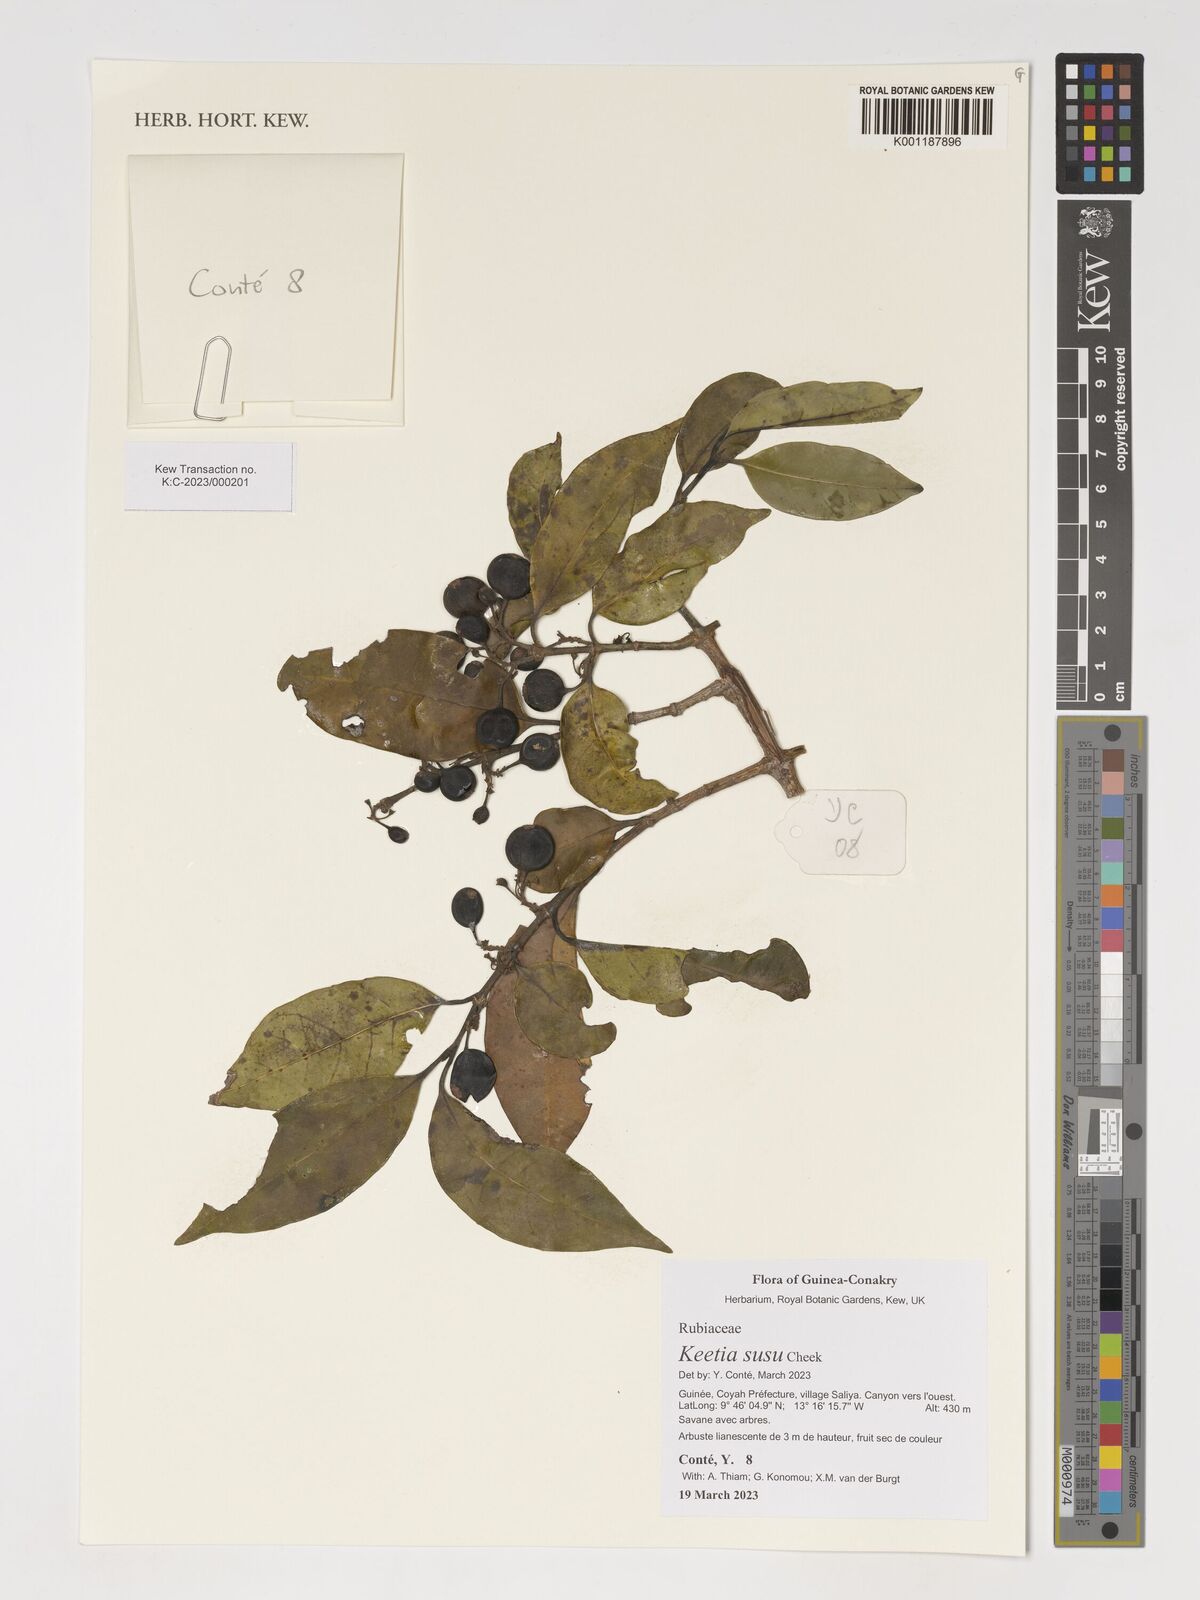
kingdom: Plantae
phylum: Tracheophyta
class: Magnoliopsida
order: Gentianales
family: Rubiaceae
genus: Keetia
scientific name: Keetia susu
